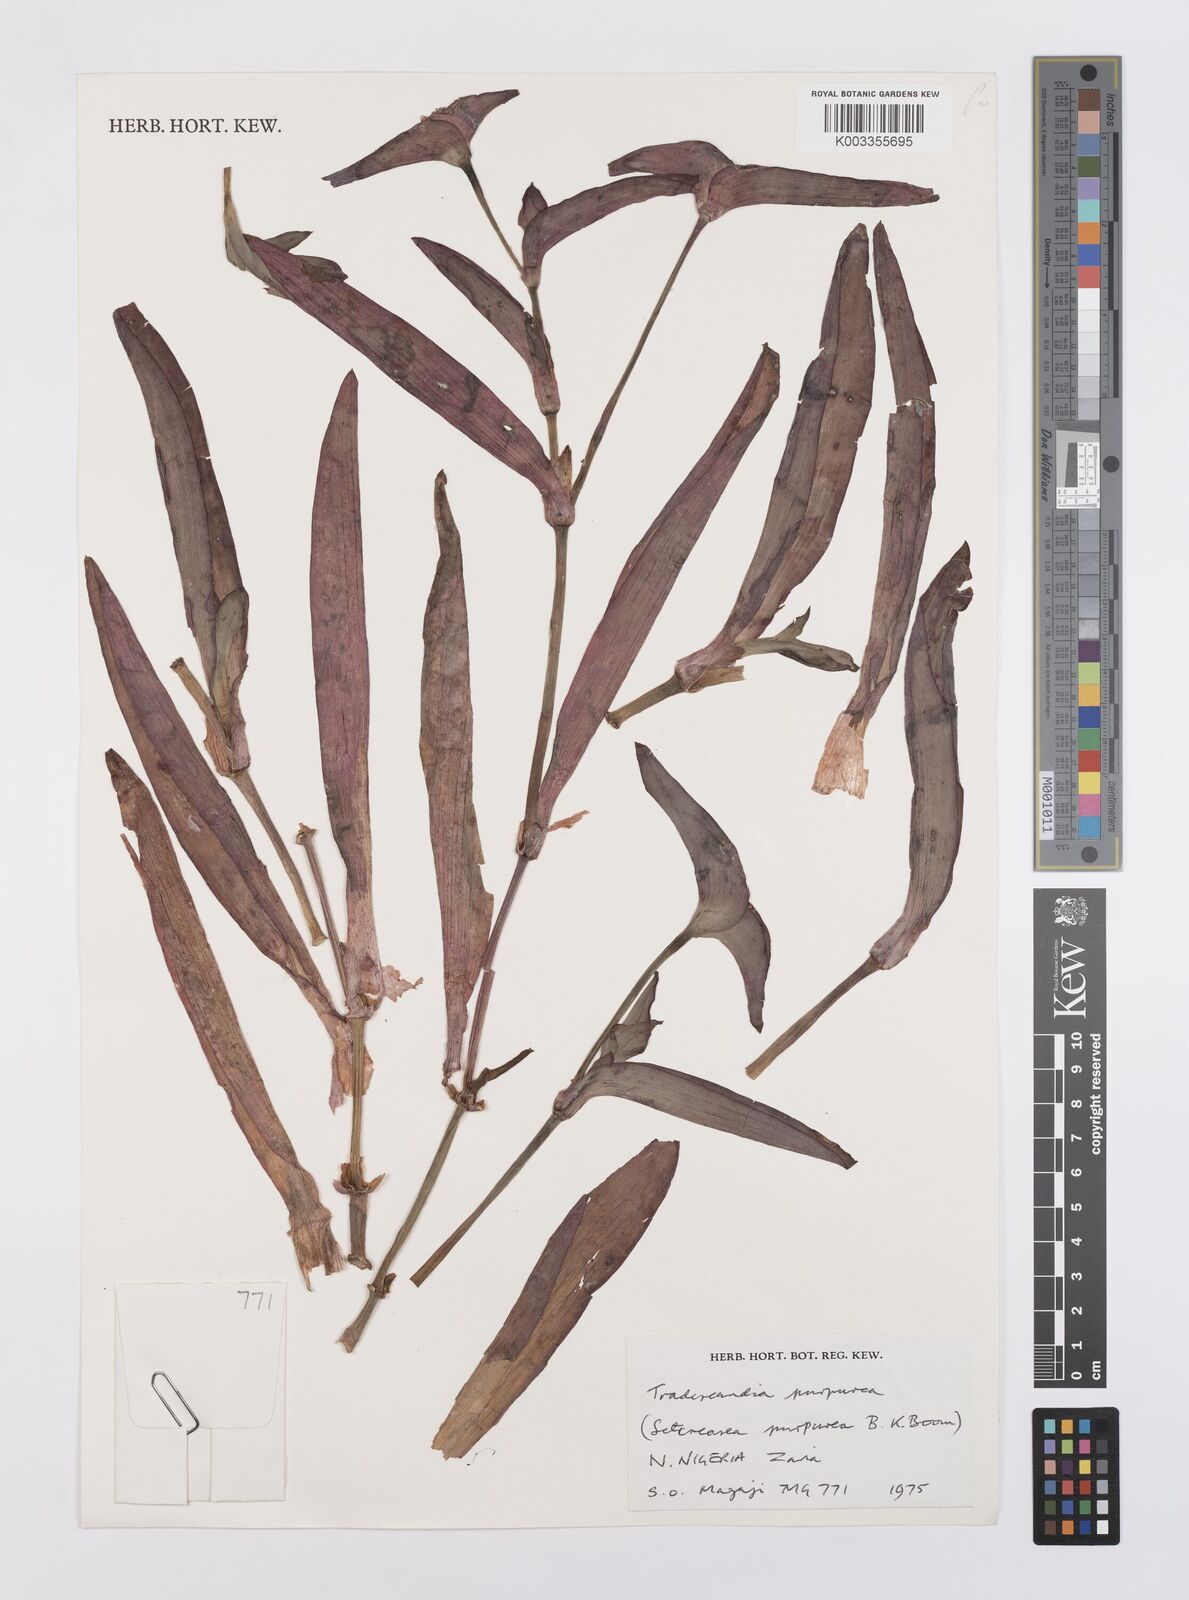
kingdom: Plantae
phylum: Tracheophyta
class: Liliopsida
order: Commelinales
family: Commelinaceae
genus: Tradescantia
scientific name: Tradescantia pallida
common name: Purpleheart
